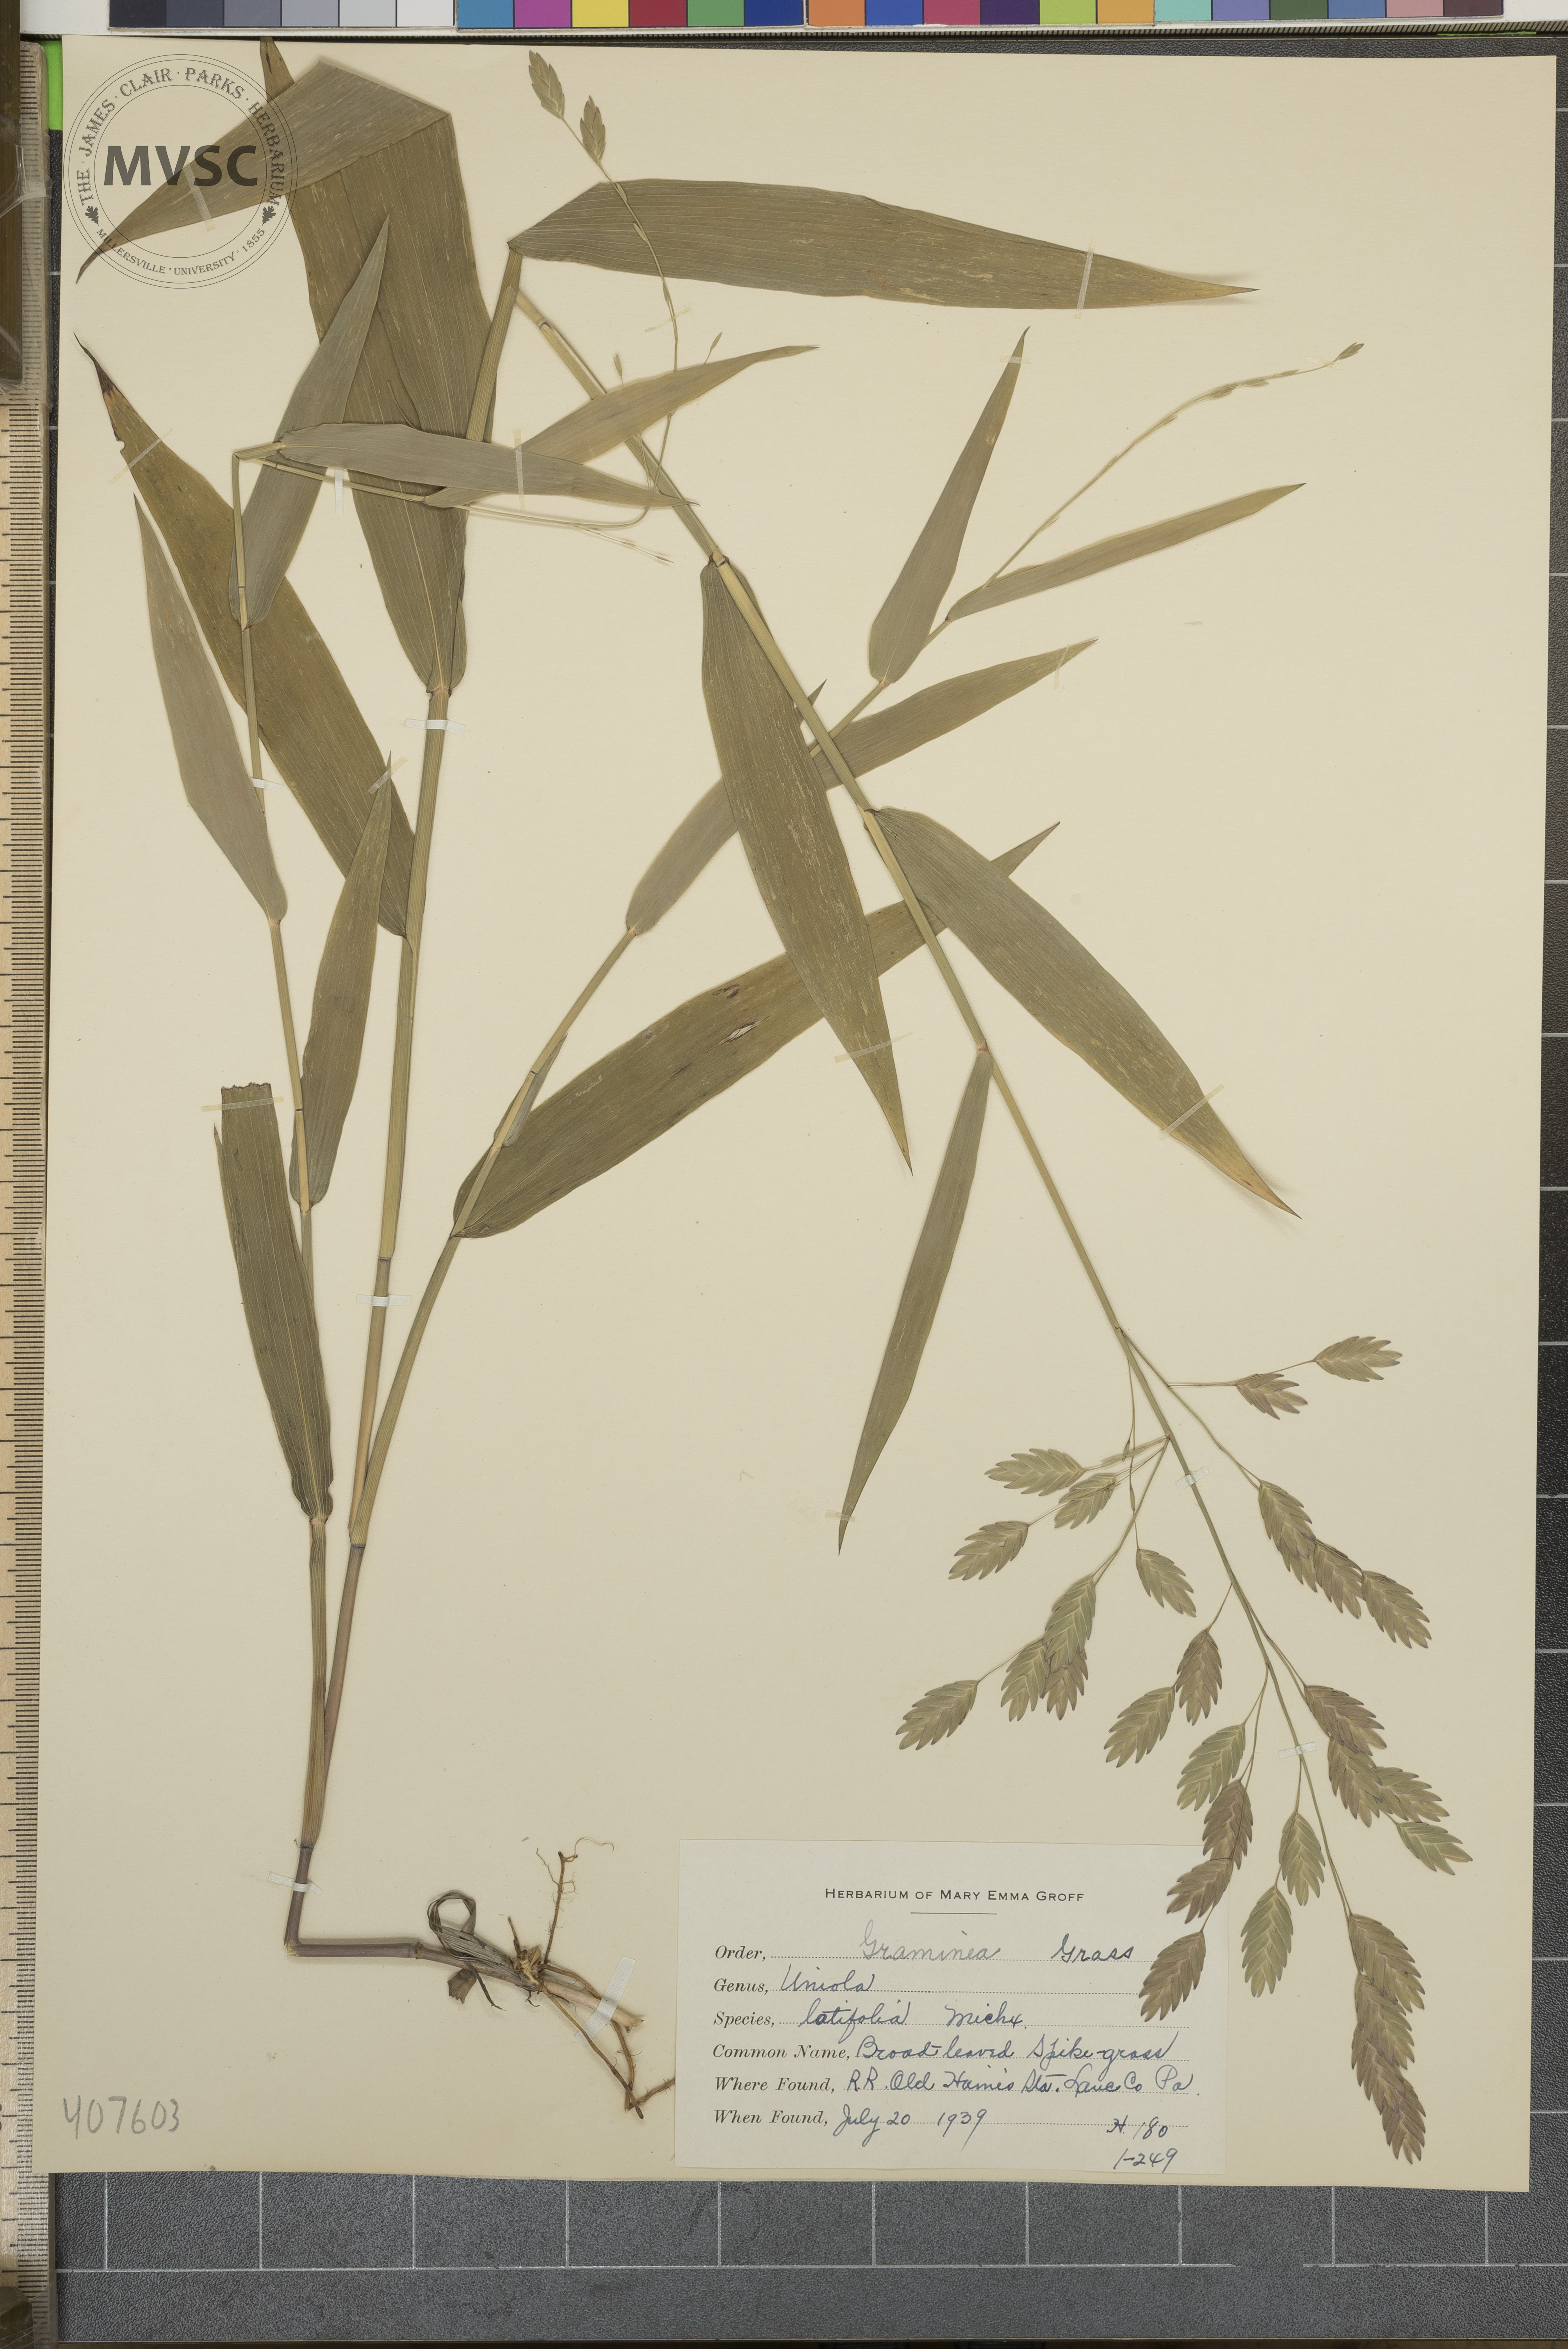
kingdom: Plantae
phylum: Tracheophyta
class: Liliopsida
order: Poales
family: Poaceae
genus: Chasmanthium
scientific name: Chasmanthium latifolium
